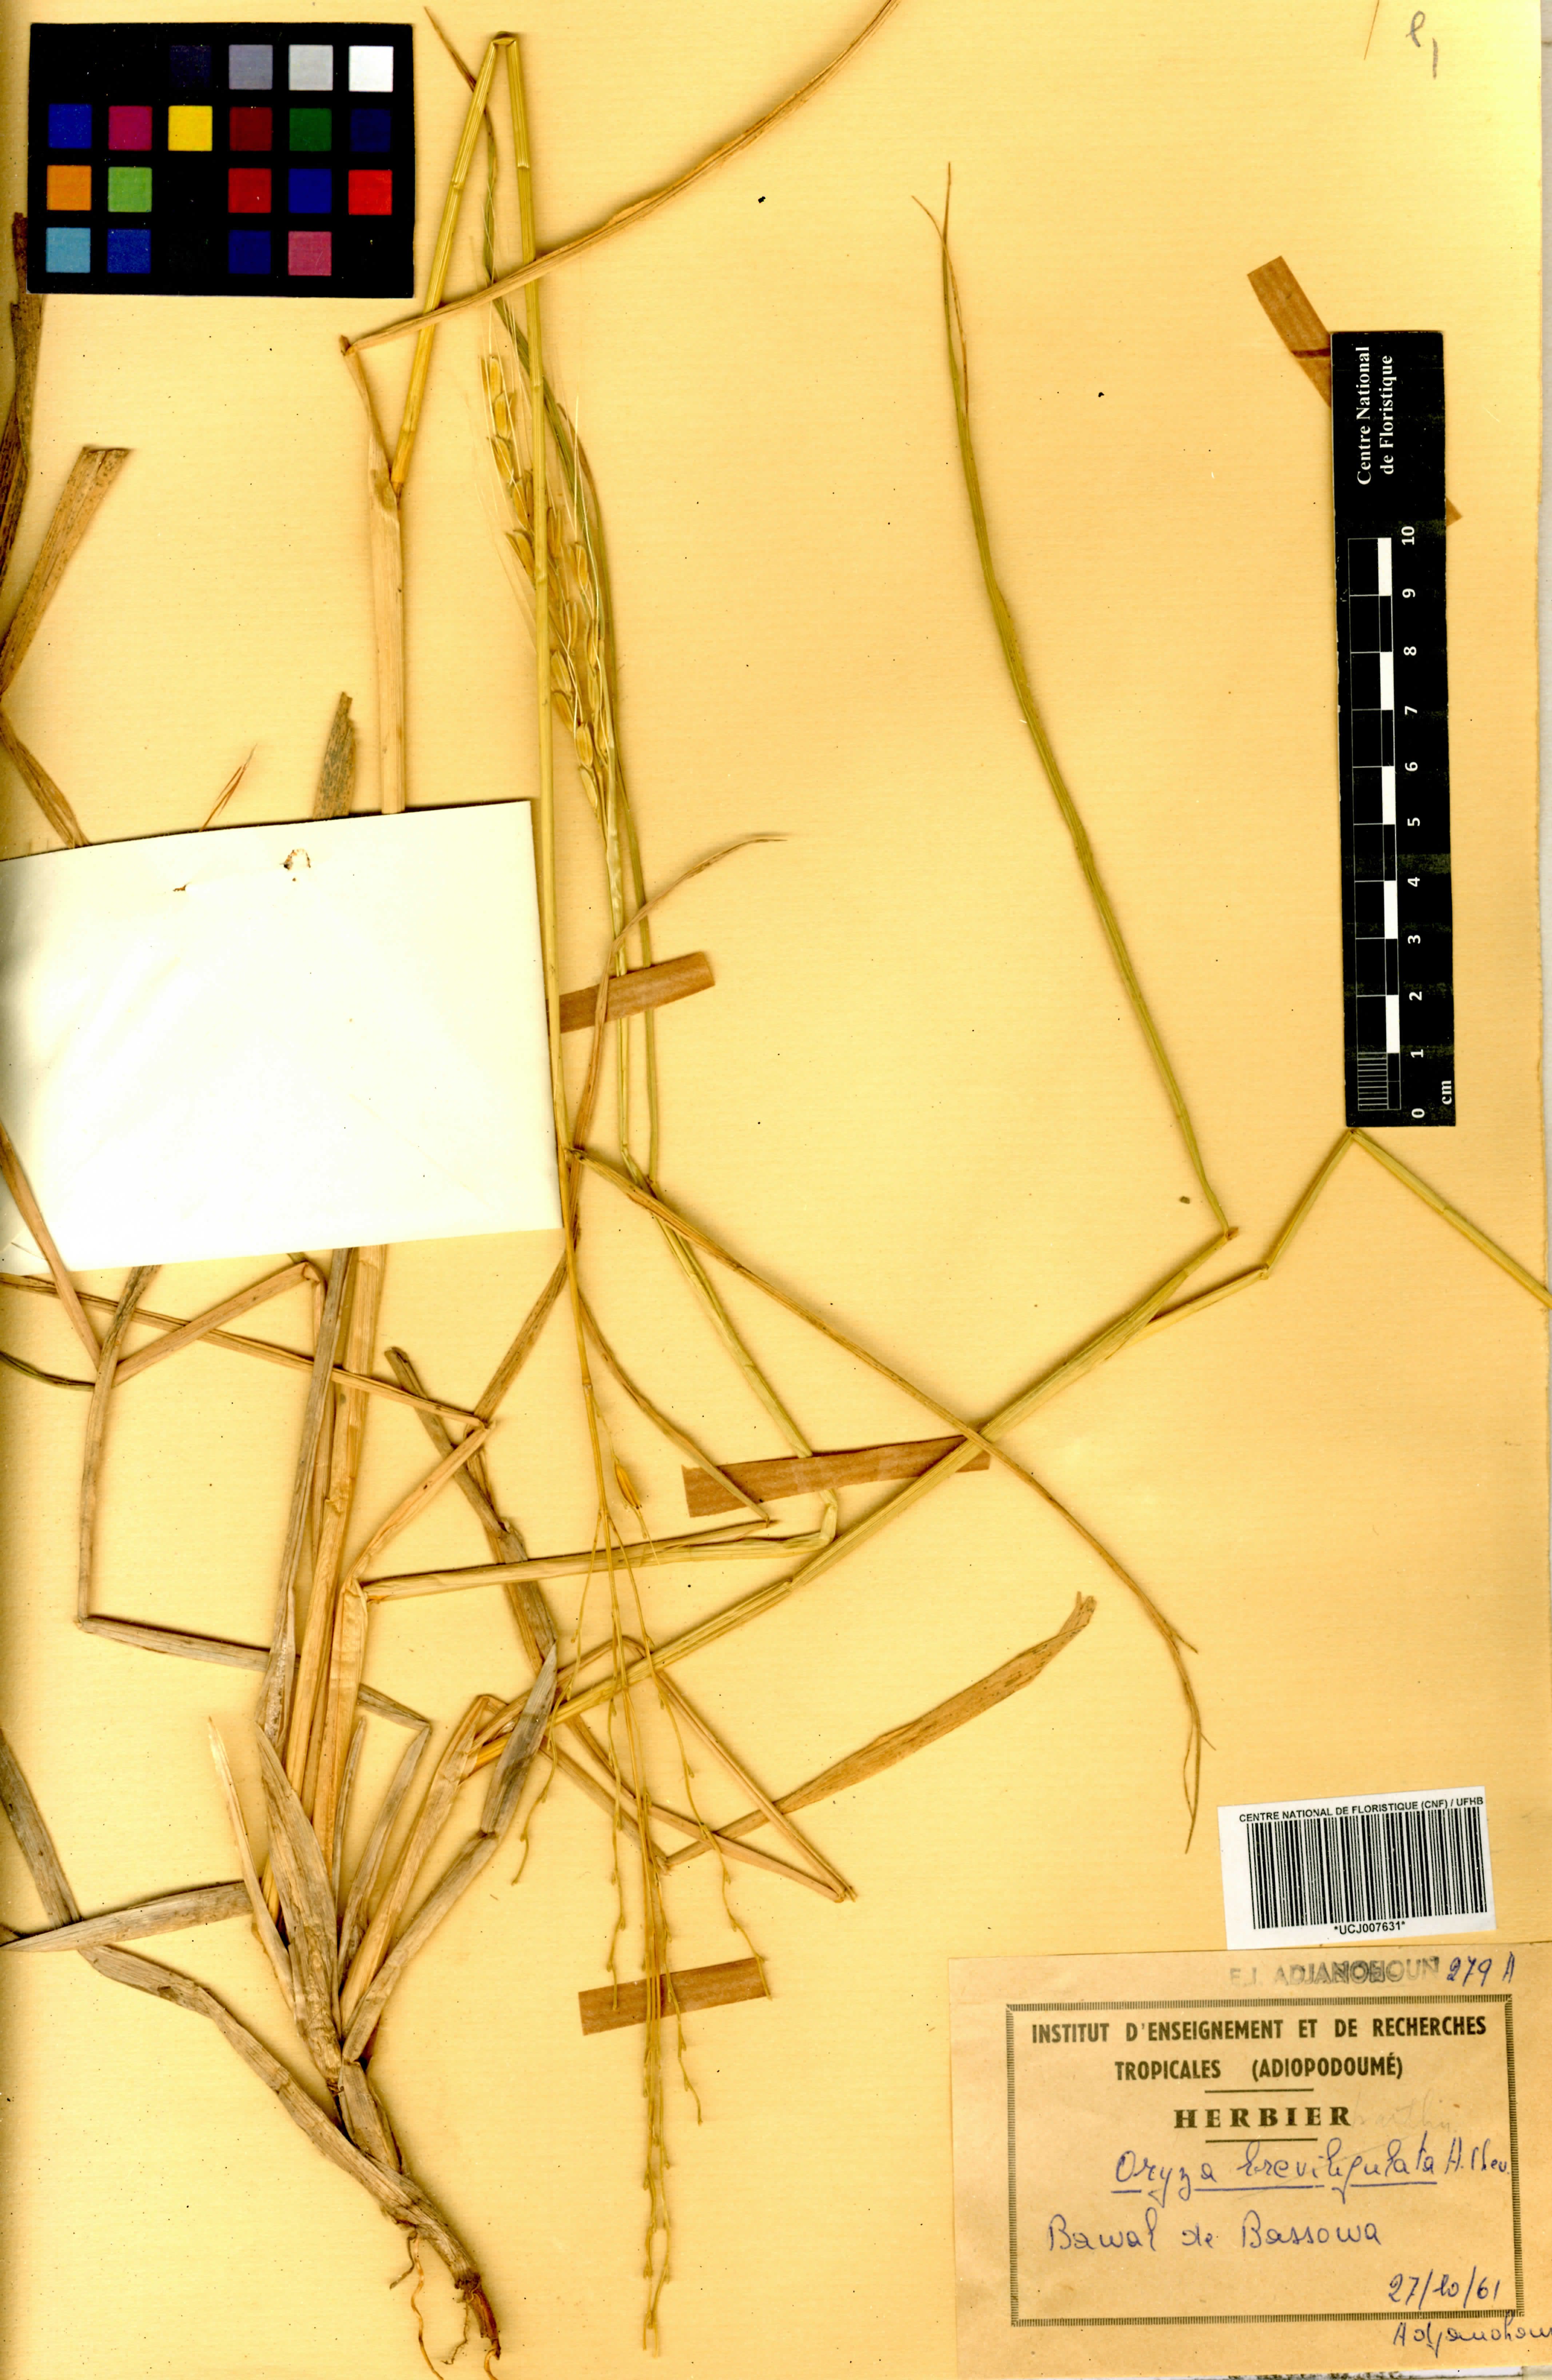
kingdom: Plantae
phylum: Tracheophyta
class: Liliopsida
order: Poales
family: Poaceae
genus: Oryza
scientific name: Oryza barthii
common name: Wild rice
